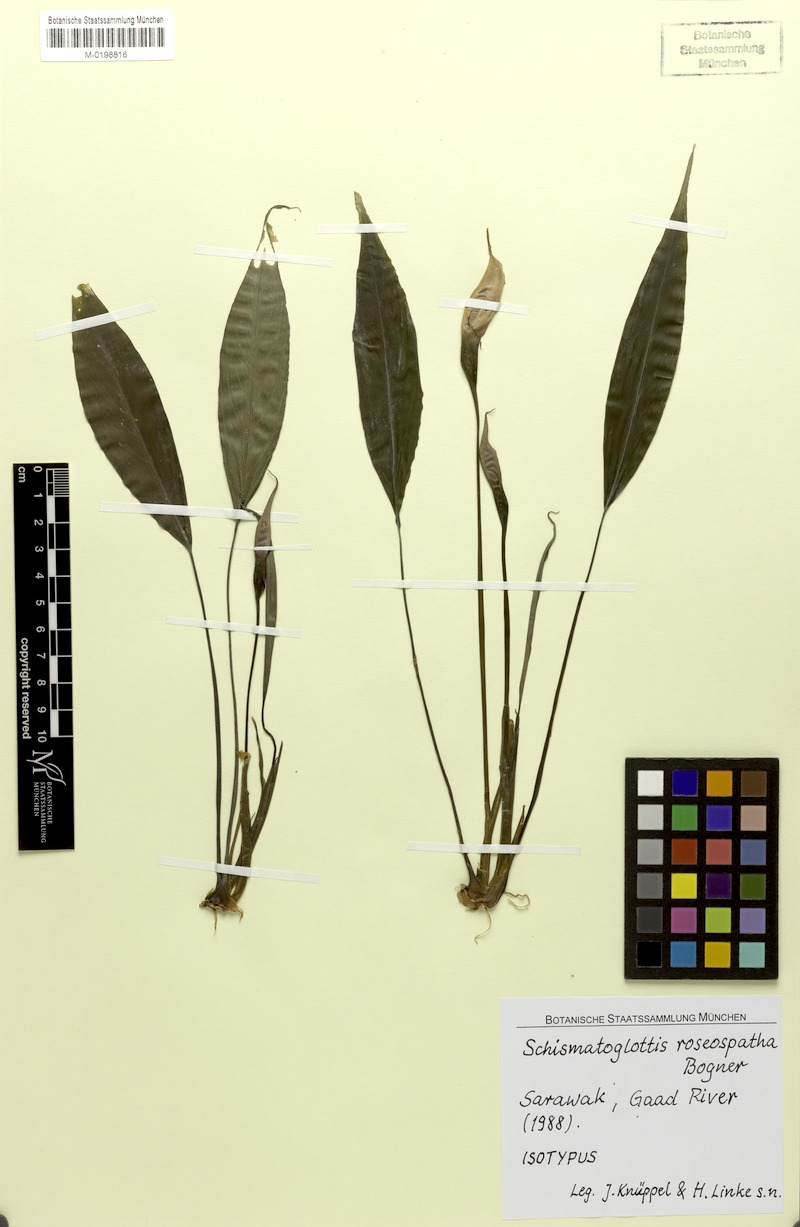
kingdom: Plantae
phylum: Tracheophyta
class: Liliopsida
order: Alismatales
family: Araceae
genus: Schismatoglottis
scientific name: Schismatoglottis roseospatha
